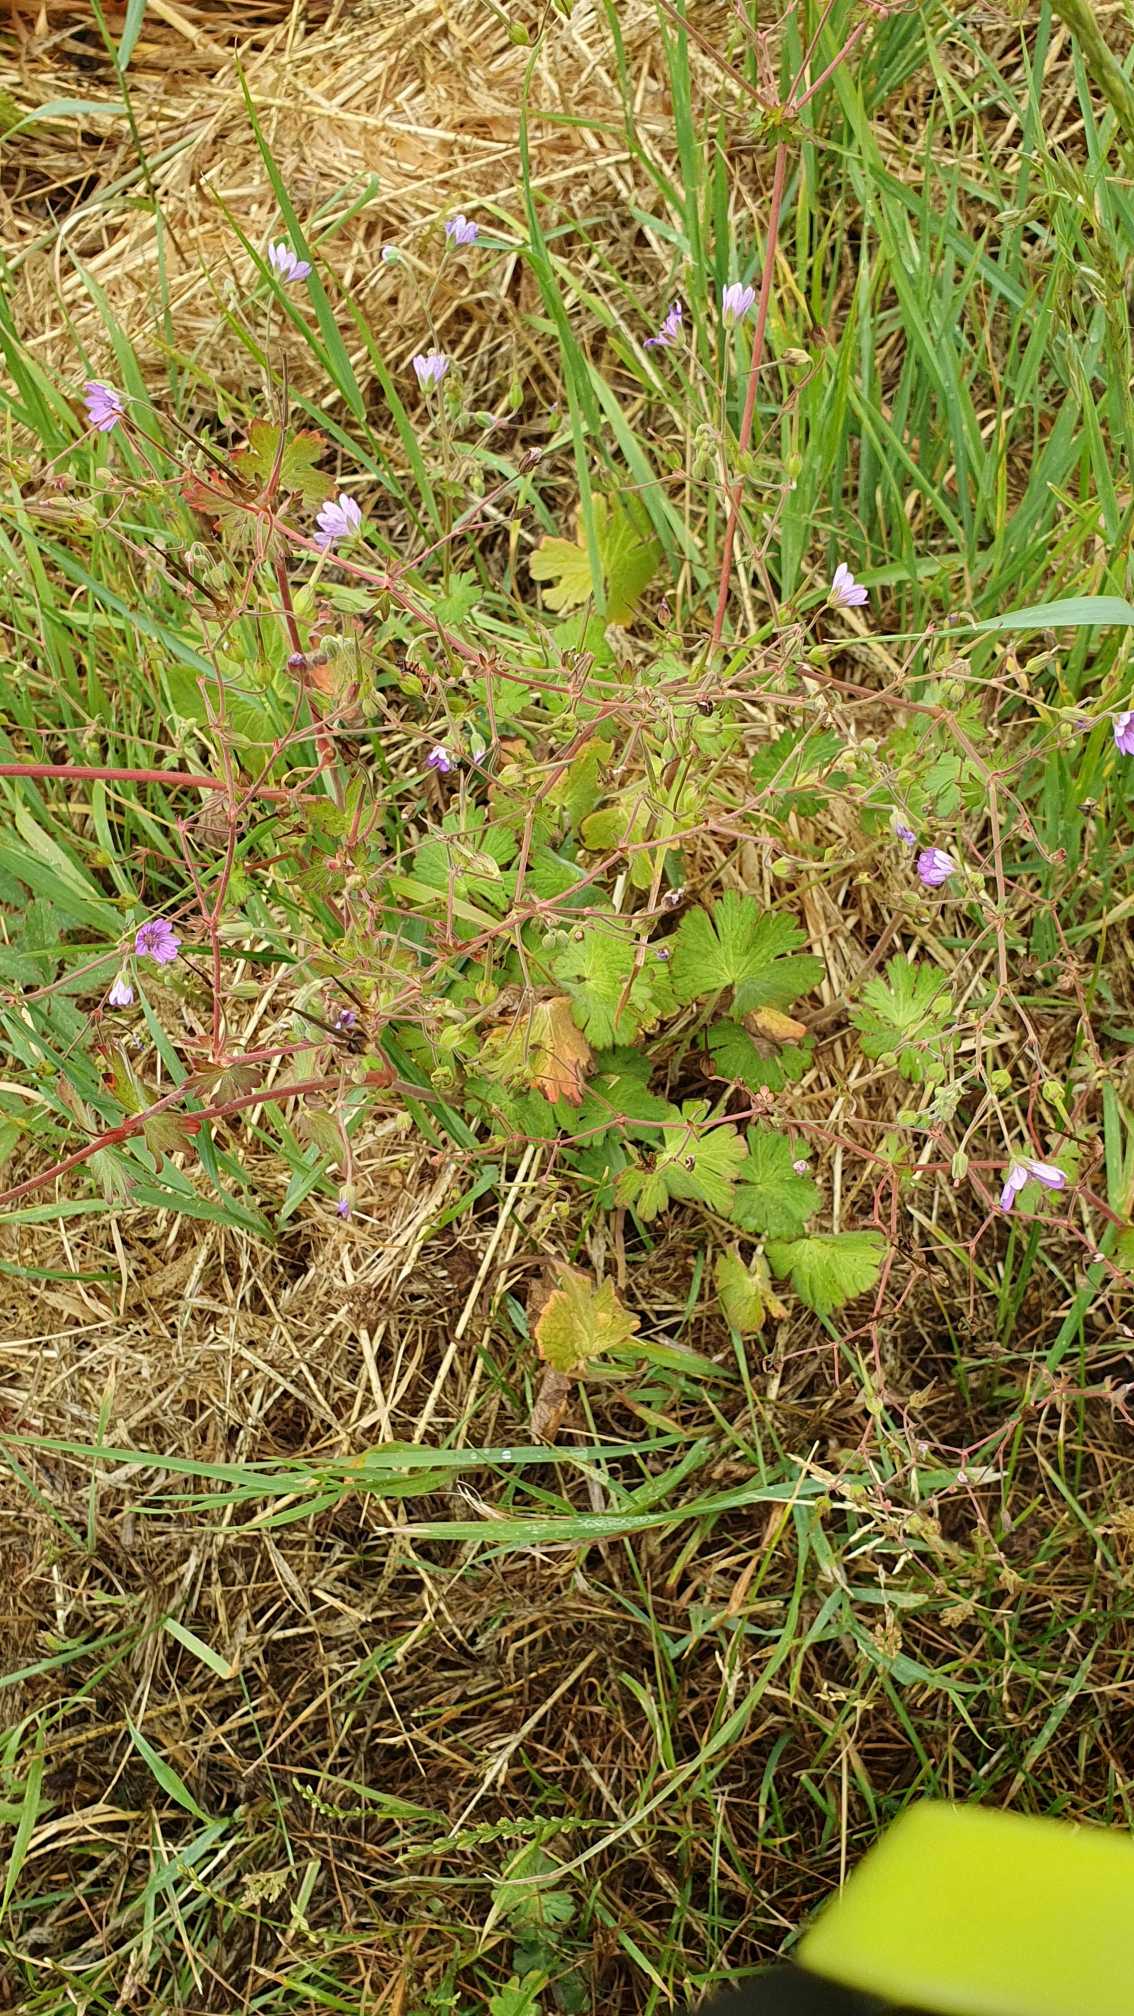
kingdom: Plantae
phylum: Tracheophyta
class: Magnoliopsida
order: Geraniales
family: Geraniaceae
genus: Geranium
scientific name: Geranium pyrenaicum
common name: Pyrenæisk storkenæb
